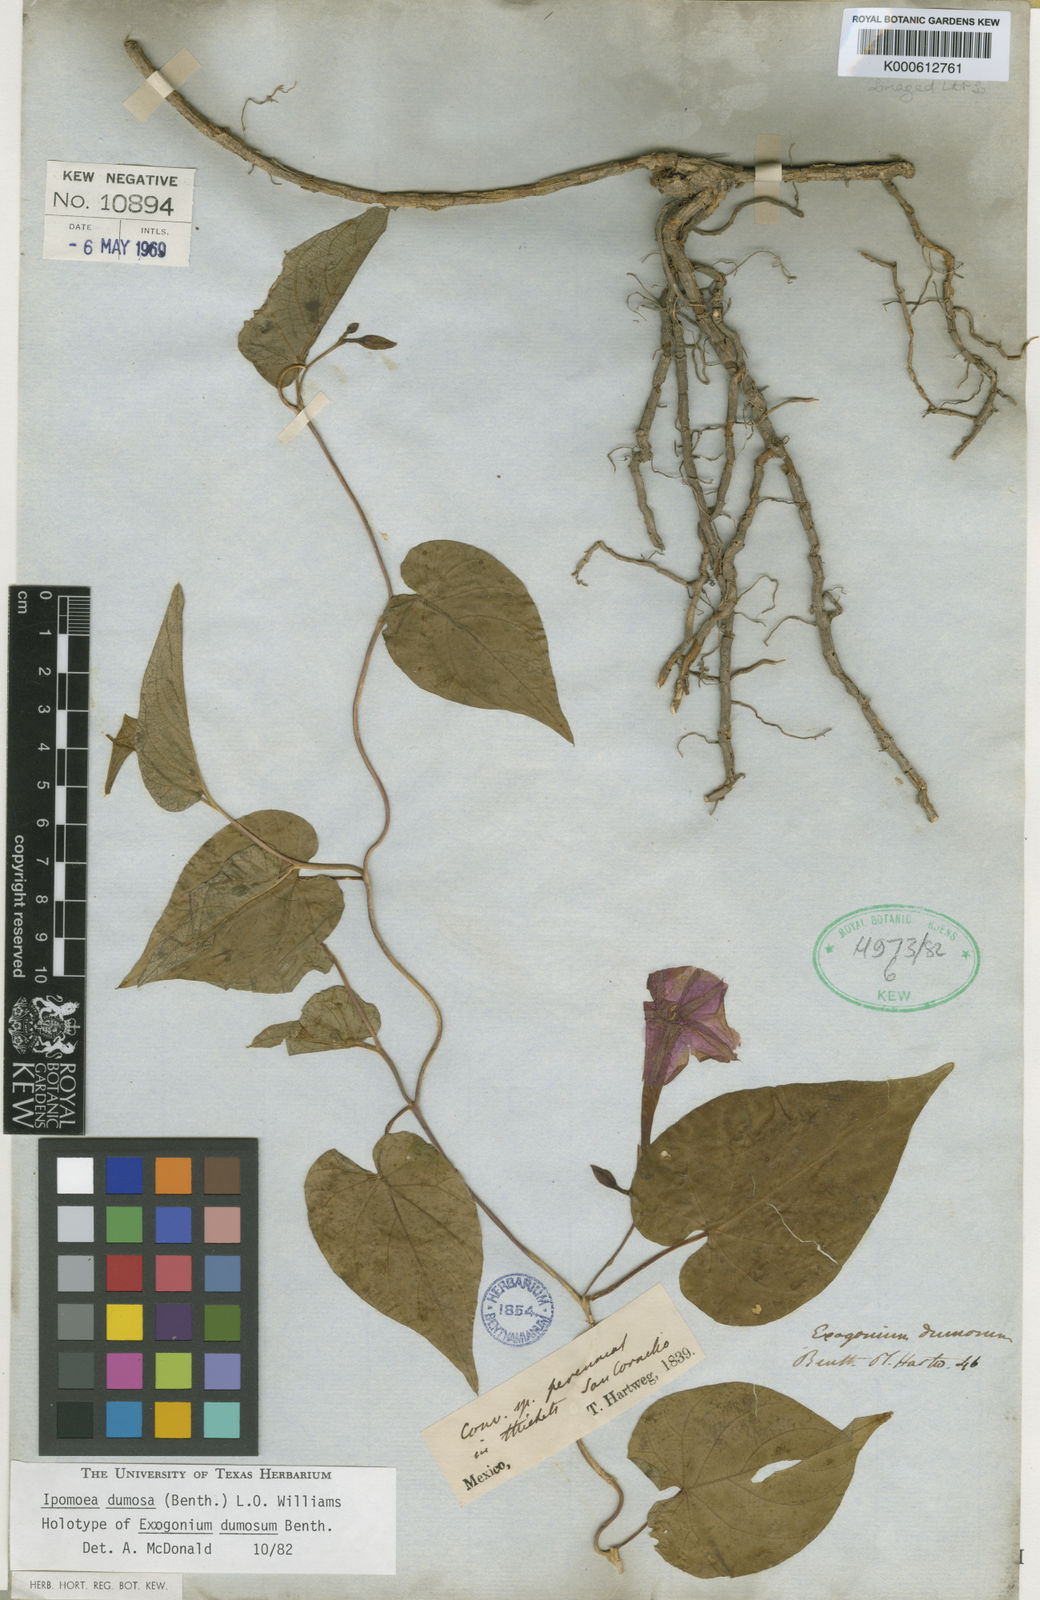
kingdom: Plantae
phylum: Tracheophyta
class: Magnoliopsida
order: Solanales
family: Convolvulaceae
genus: Ipomoea
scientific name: Ipomoea dumosa
